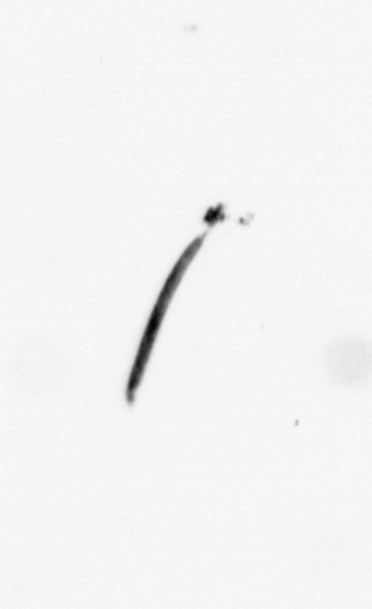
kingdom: Bacteria
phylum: Cyanobacteria
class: Cyanobacteriia
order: Cyanobacteriales
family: Microcoleaceae
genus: Trichodesmium
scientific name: Trichodesmium
